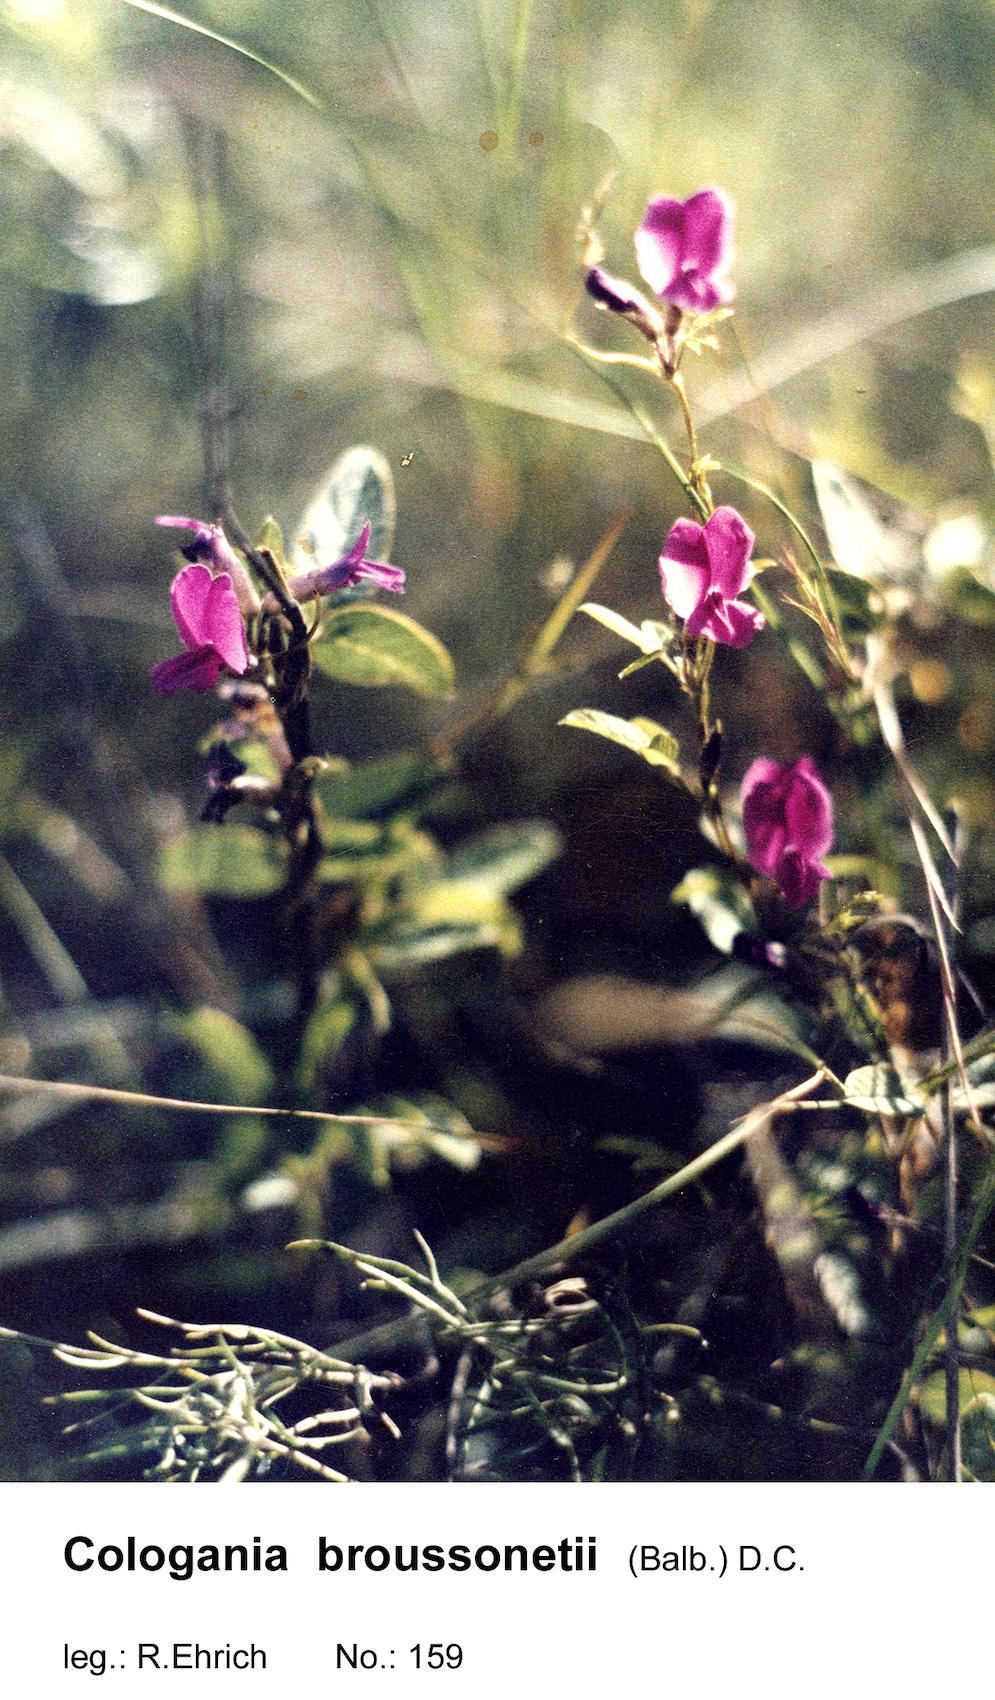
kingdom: Plantae
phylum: Tracheophyta
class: Magnoliopsida
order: Fabales
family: Fabaceae
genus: Cologania
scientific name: Cologania broussonetii
